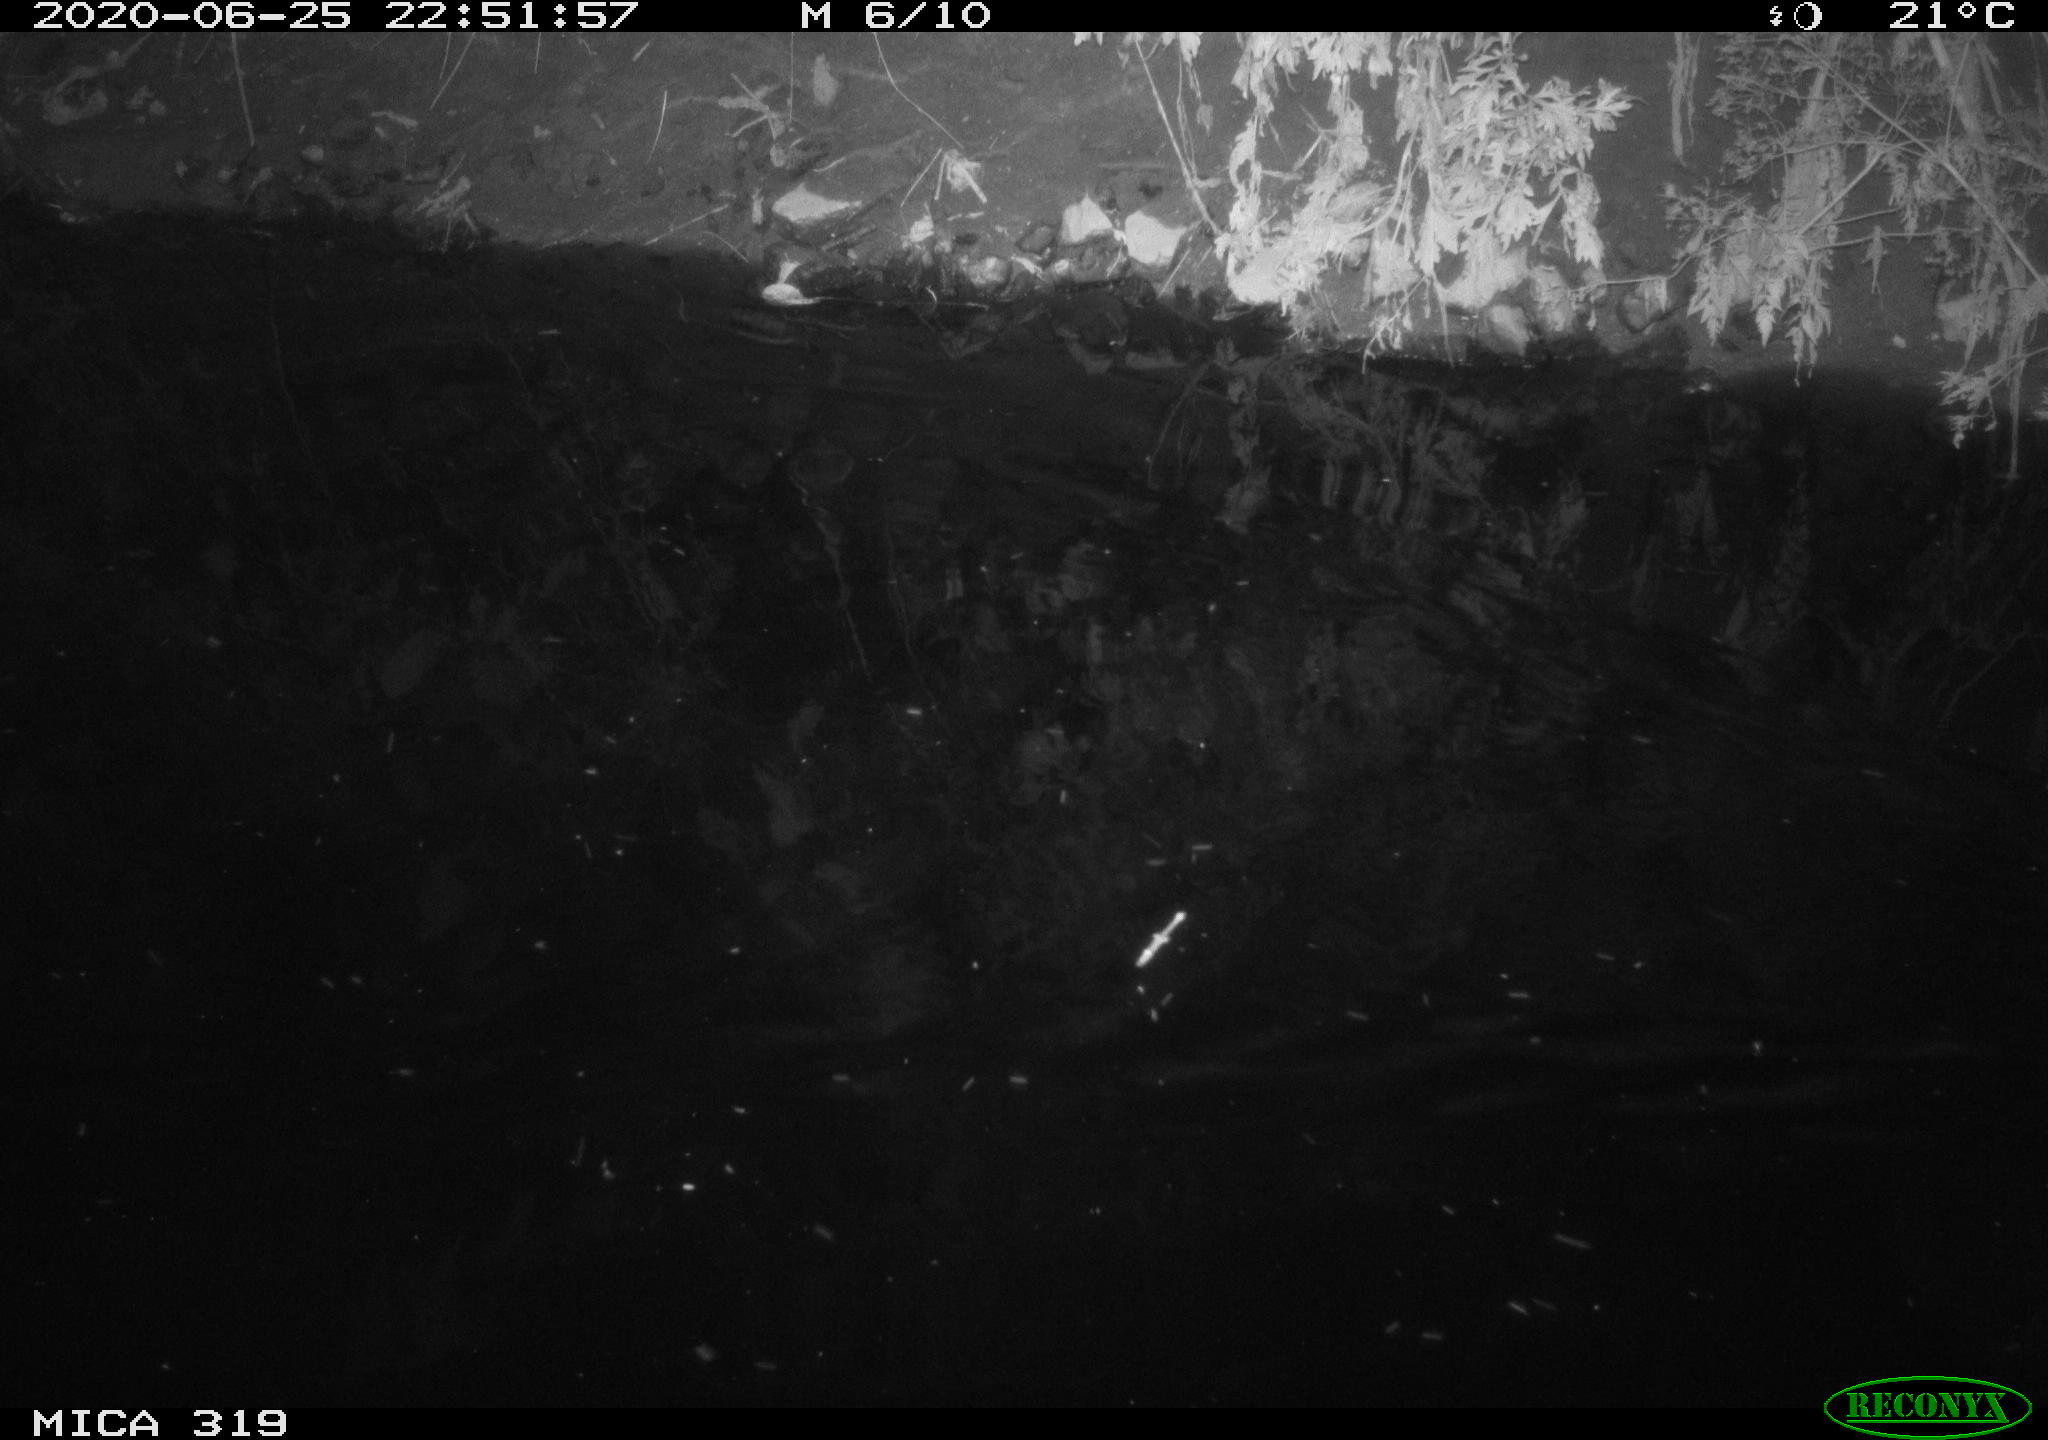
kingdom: Animalia
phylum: Chordata
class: Aves
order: Anseriformes
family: Anatidae
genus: Anas
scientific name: Anas platyrhynchos
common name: Mallard
